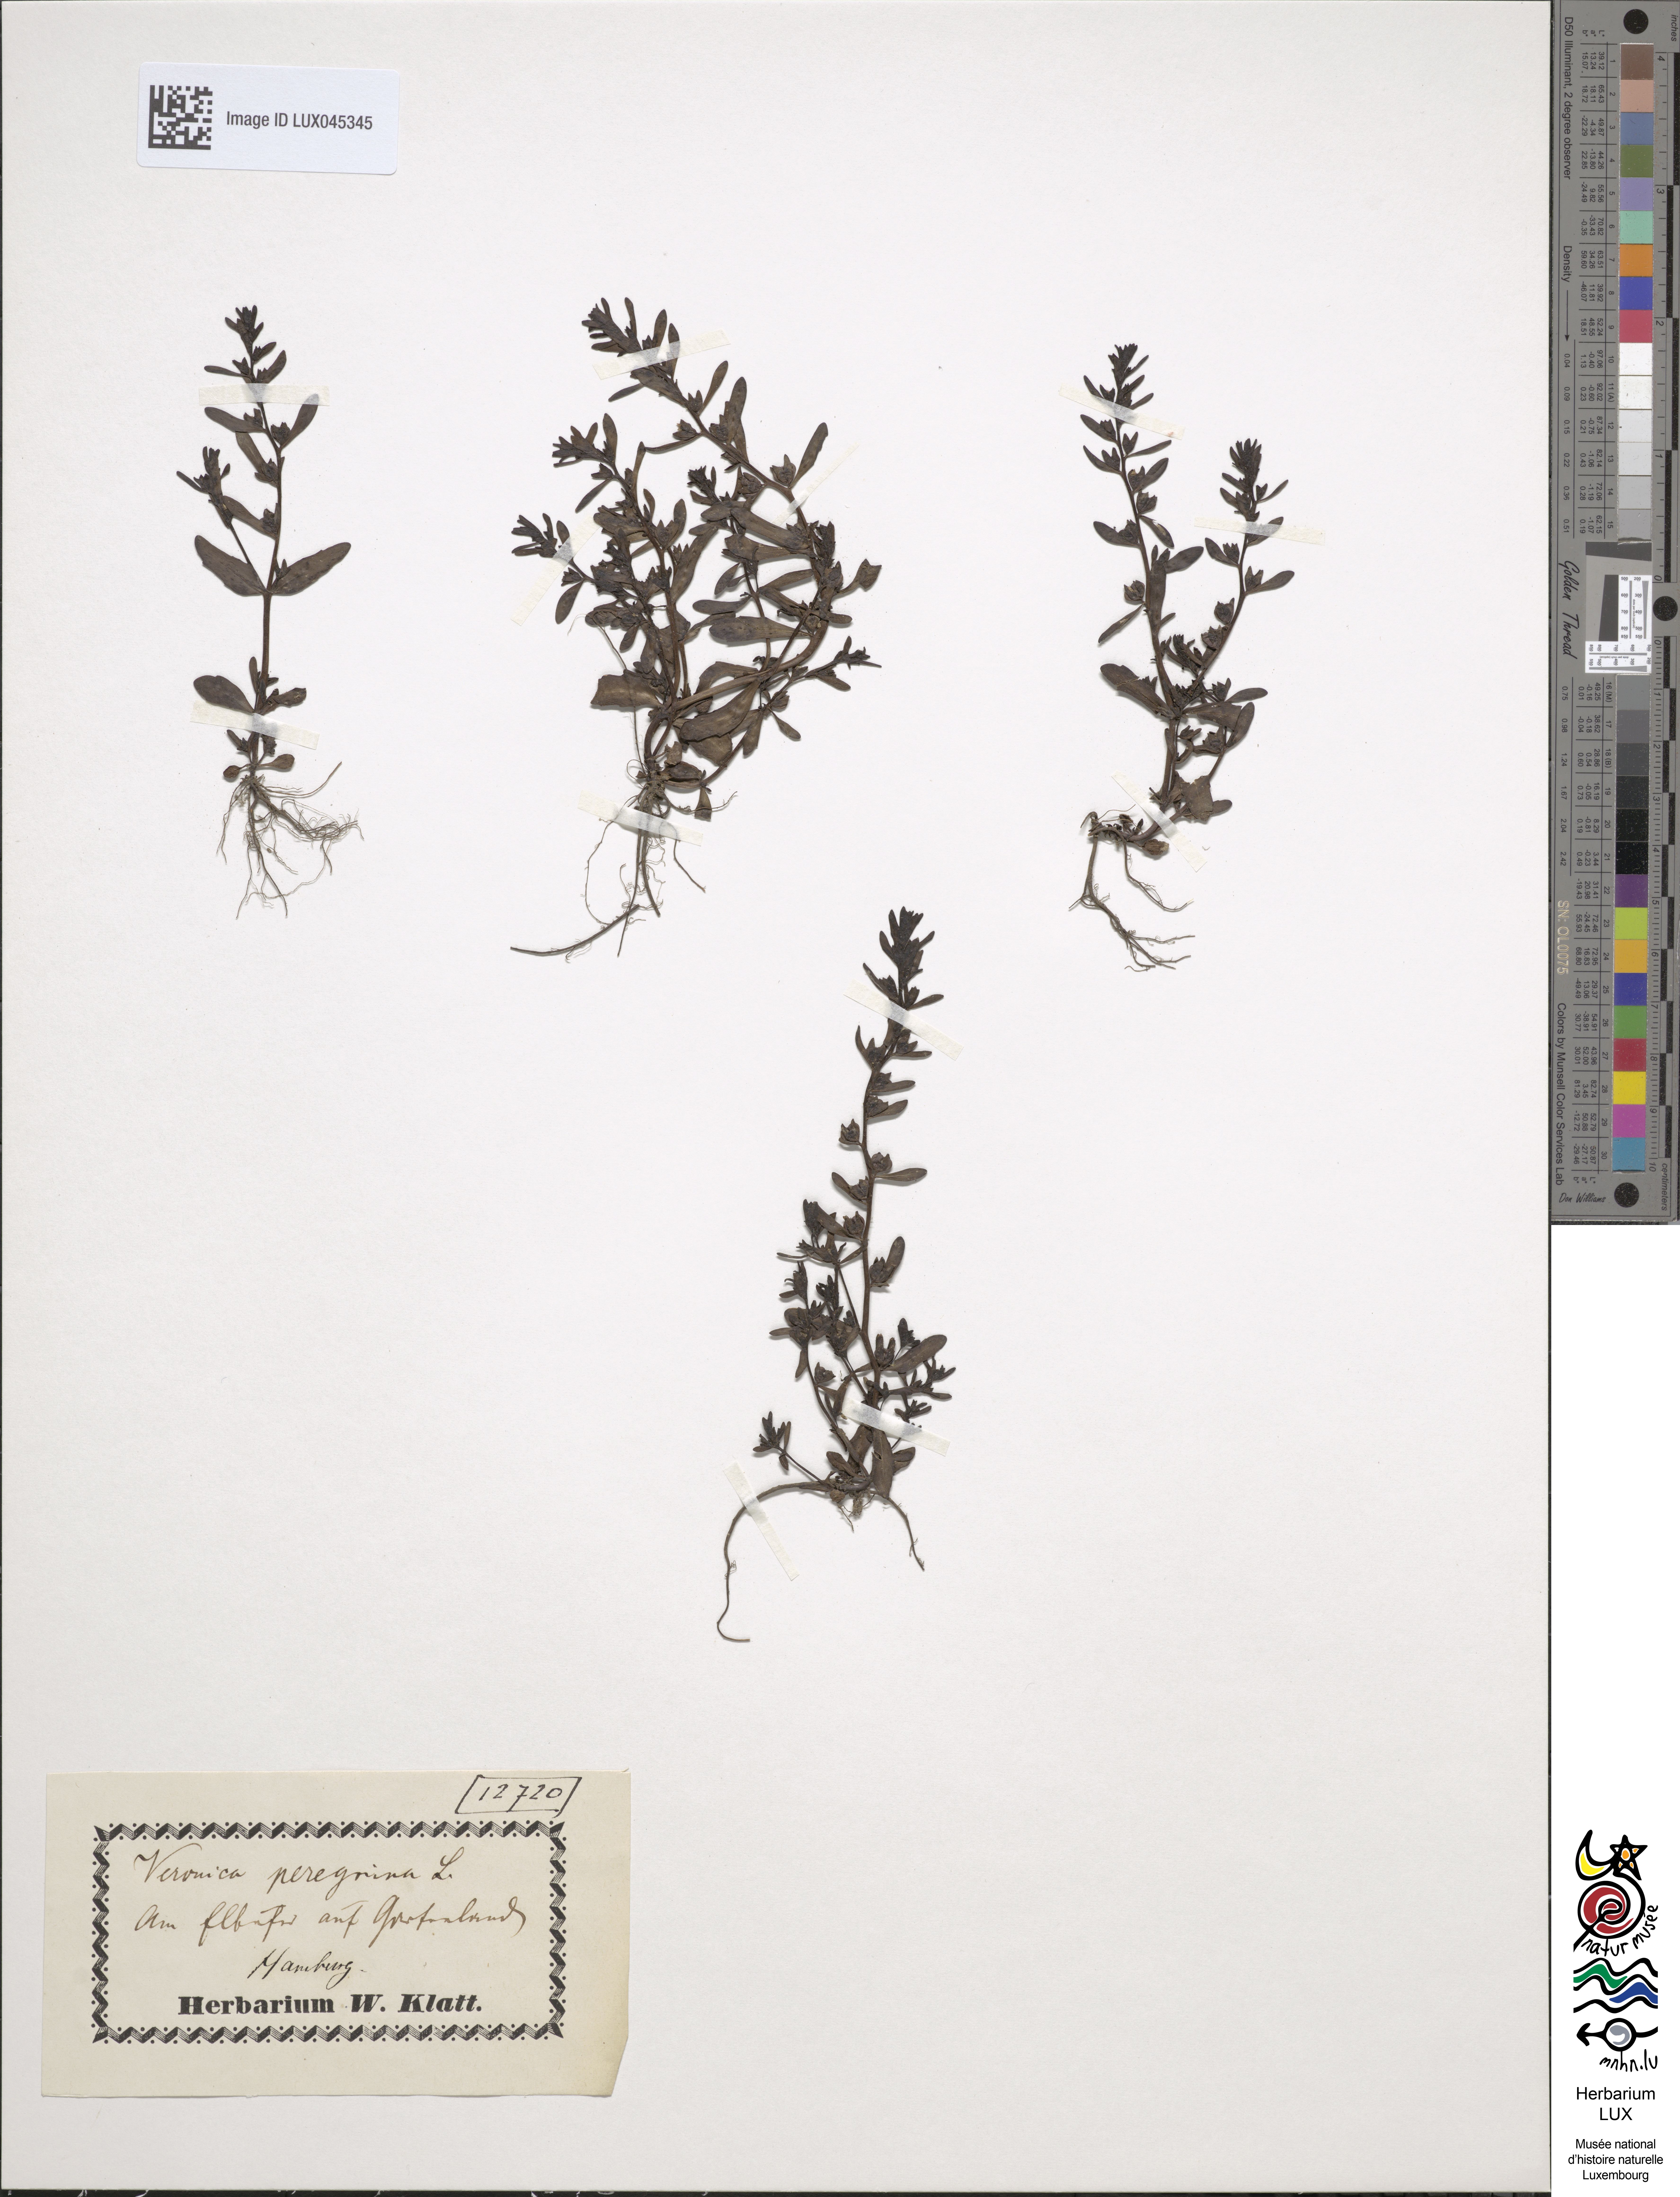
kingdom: Plantae
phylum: Tracheophyta
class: Magnoliopsida
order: Lamiales
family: Plantaginaceae
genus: Veronica
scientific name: Veronica peregrina
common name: Neckweed
